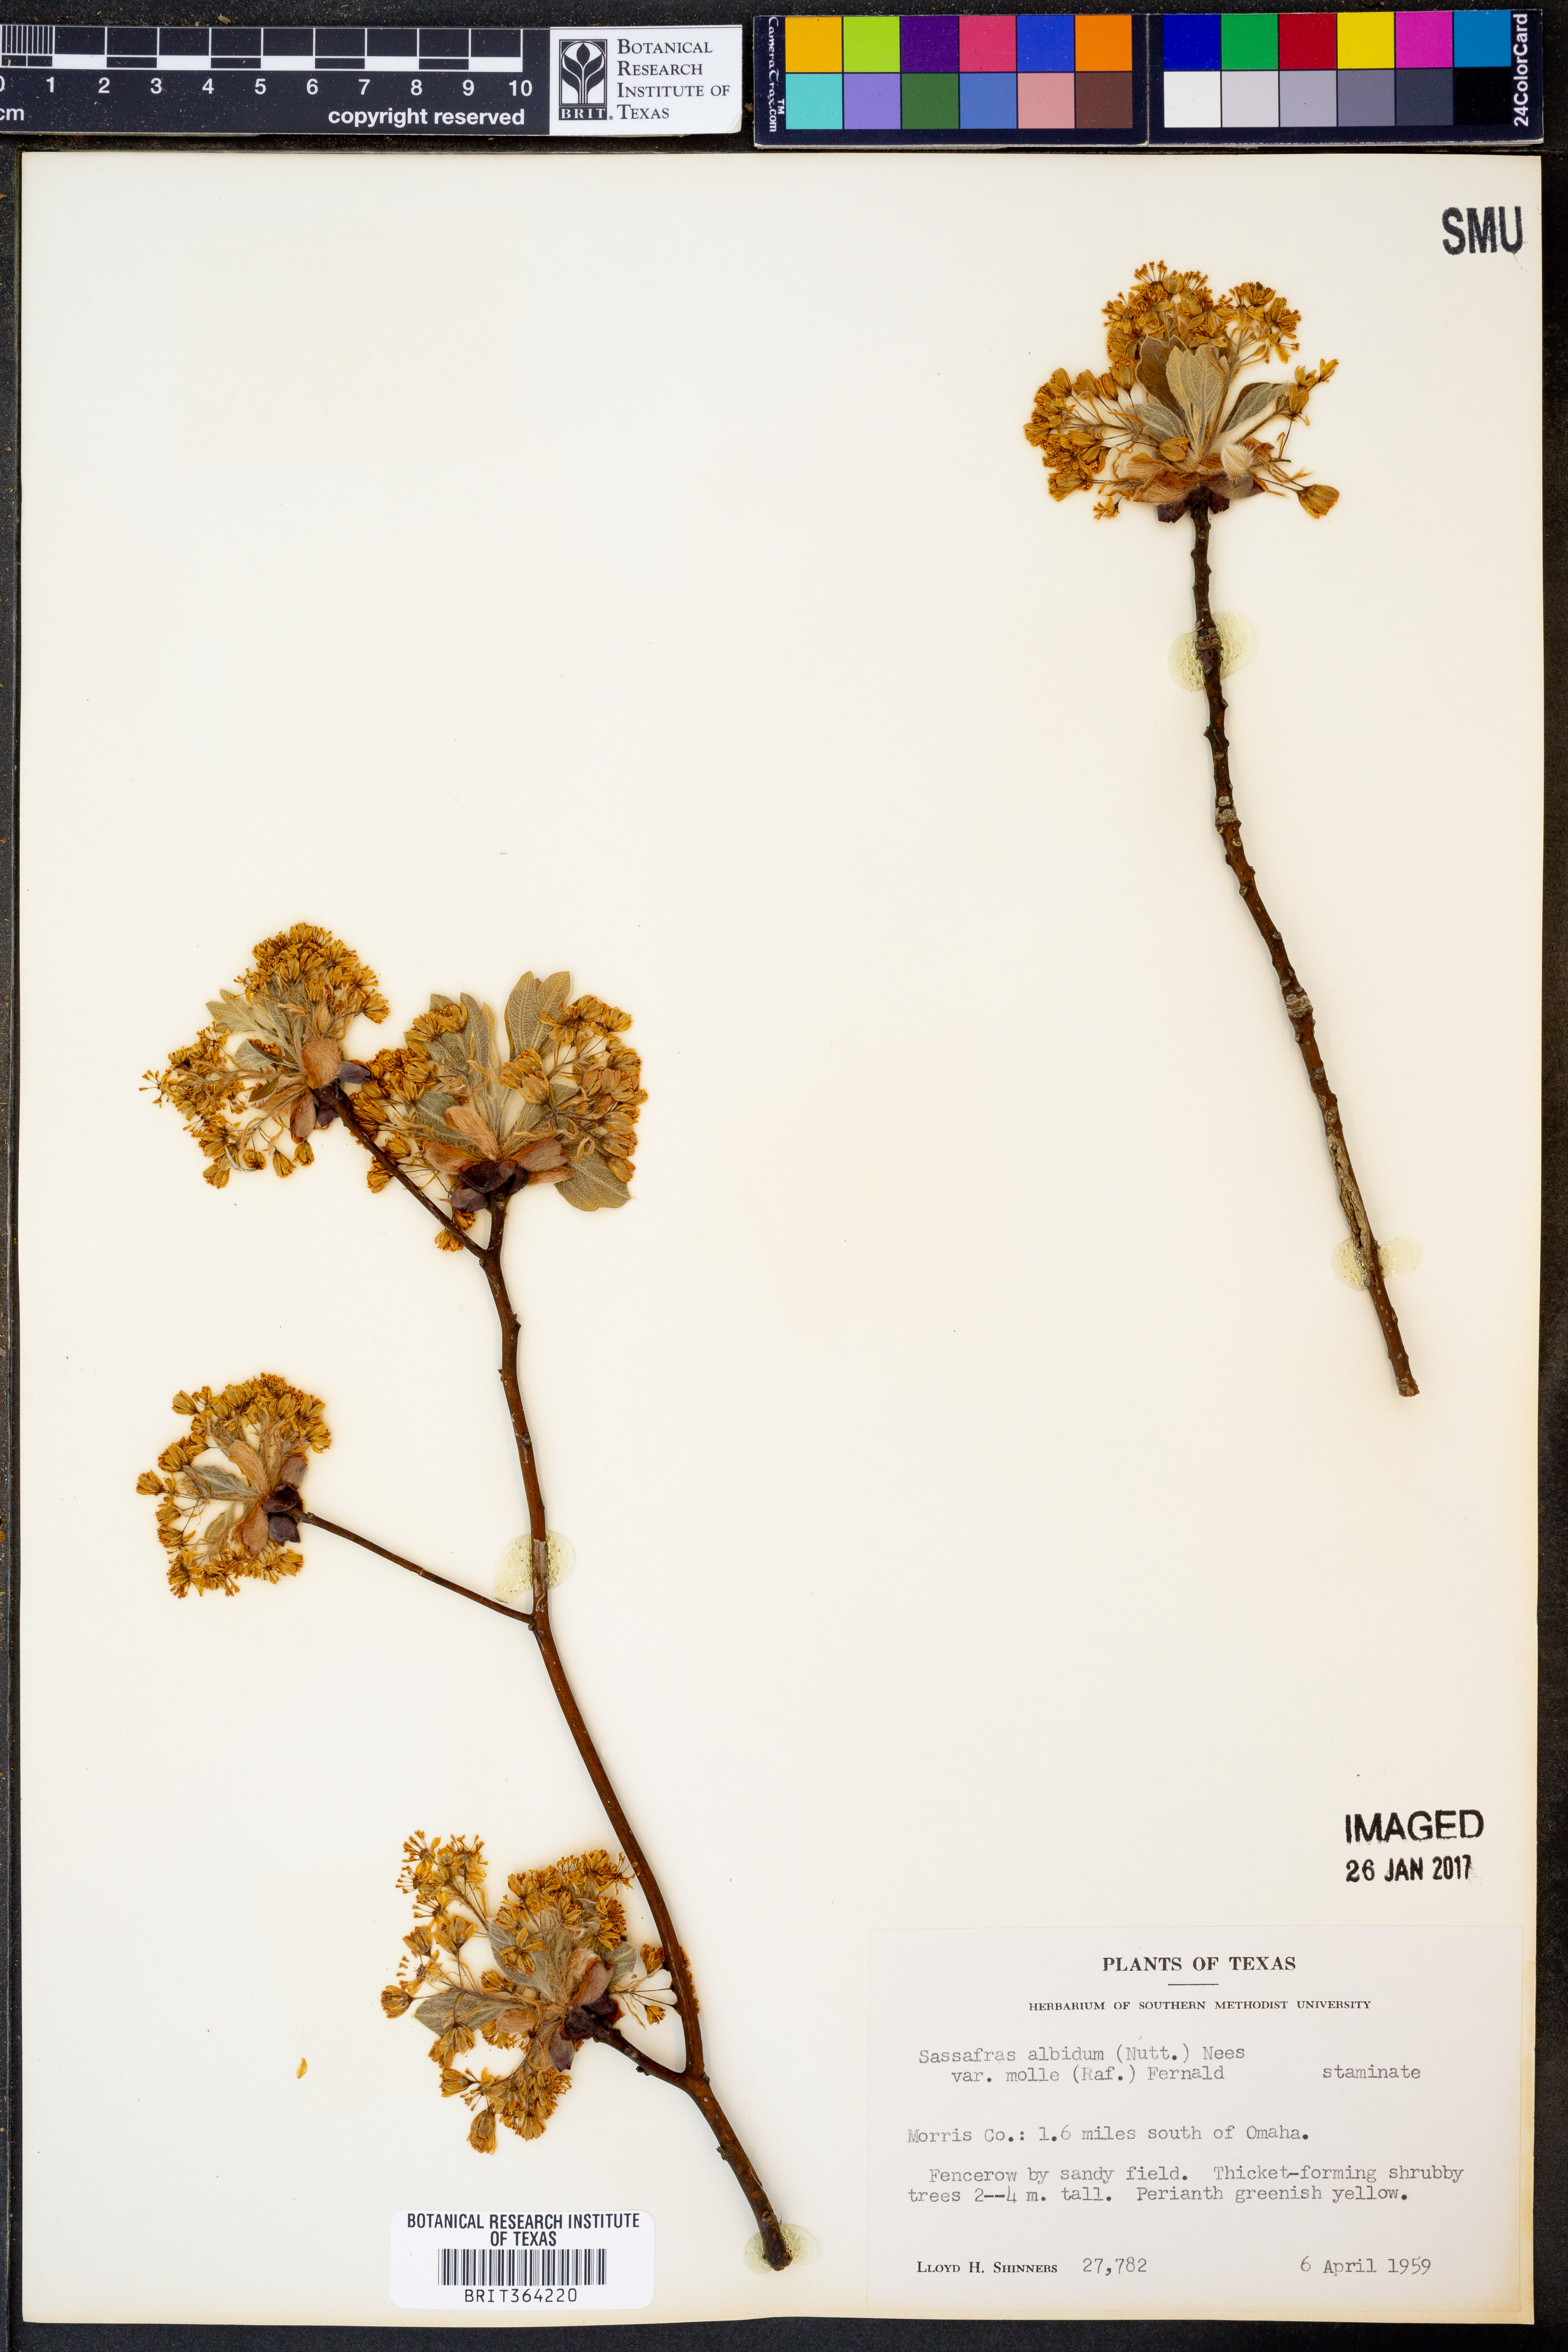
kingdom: Plantae
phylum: Tracheophyta
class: Magnoliopsida
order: Laurales
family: Lauraceae
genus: Sassafras
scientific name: Sassafras albidum
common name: Sassafras
